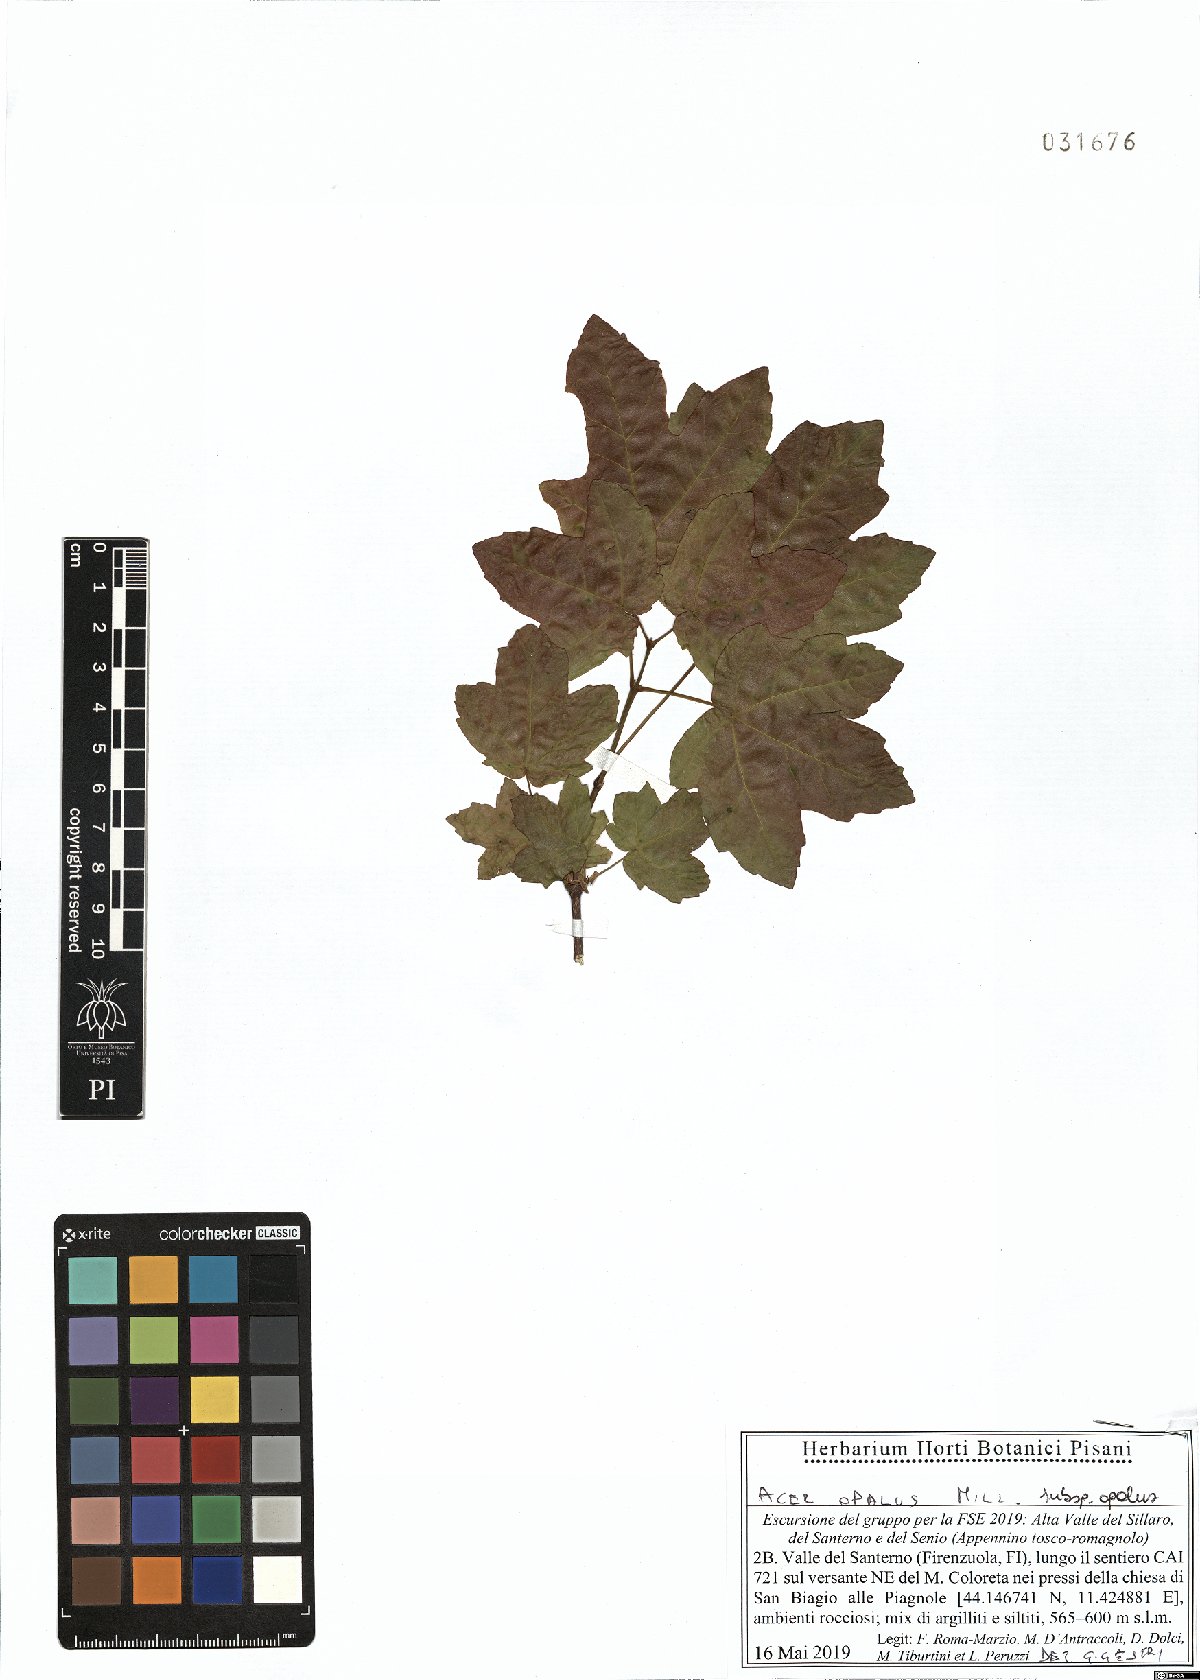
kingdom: Plantae
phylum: Tracheophyta
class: Magnoliopsida
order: Sapindales
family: Sapindaceae
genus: Acer
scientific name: Acer opalus
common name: Italian maple
